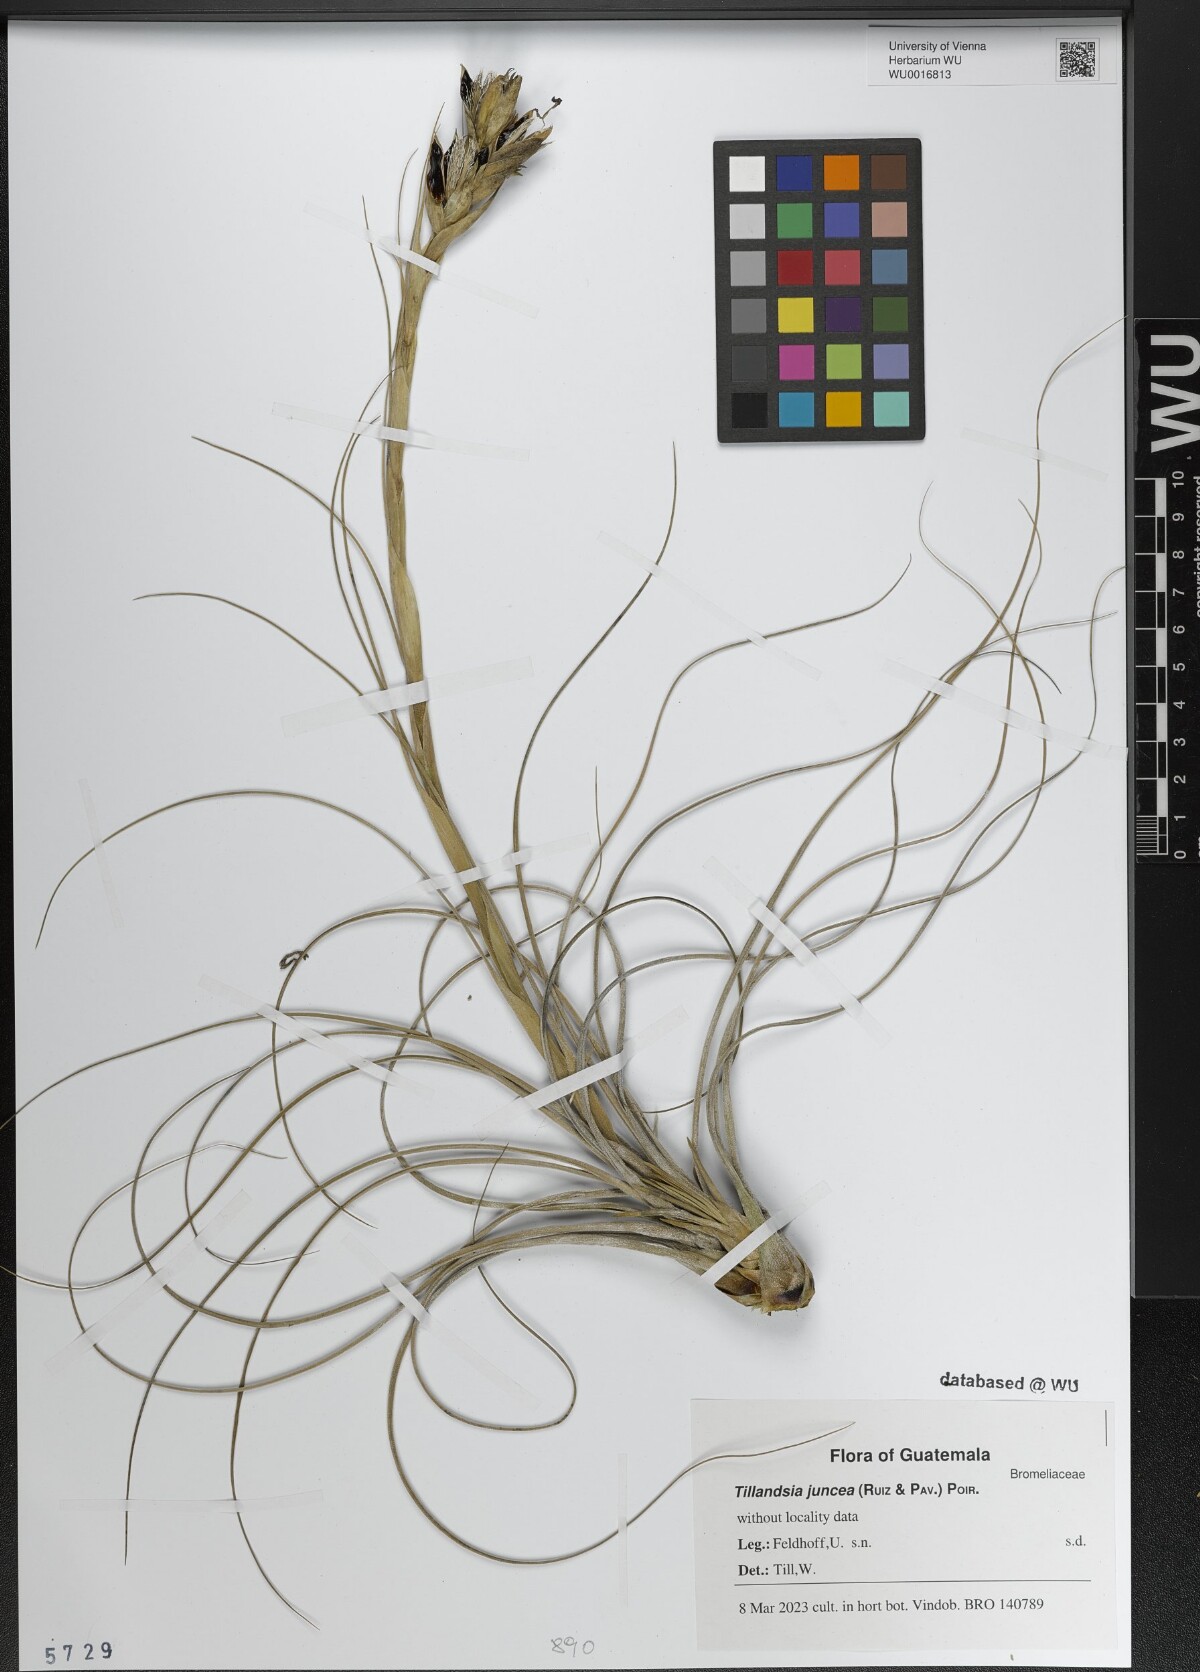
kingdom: Plantae
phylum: Tracheophyta
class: Liliopsida
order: Poales
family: Bromeliaceae
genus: Tillandsia
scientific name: Tillandsia juncea
